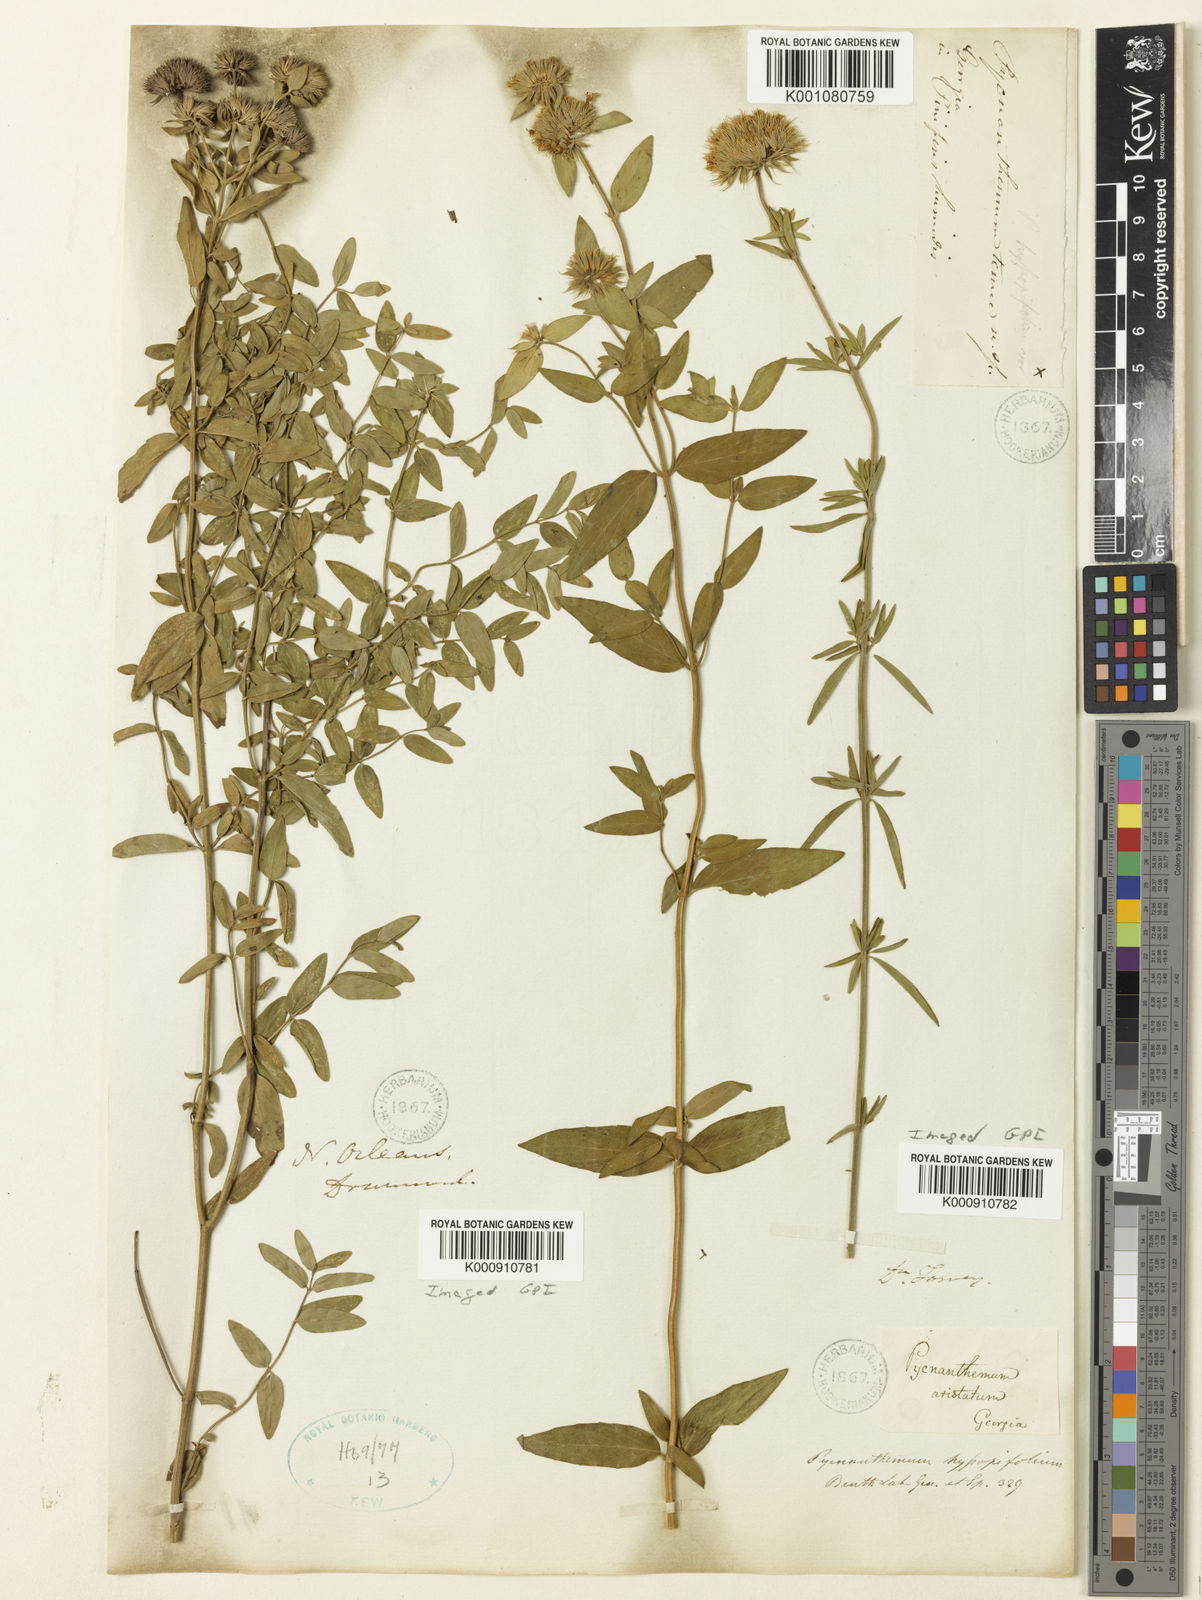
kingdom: Plantae
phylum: Tracheophyta
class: Magnoliopsida
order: Lamiales
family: Lamiaceae
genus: Pycnanthemum
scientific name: Pycnanthemum setosum
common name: Awned mountain-mint
